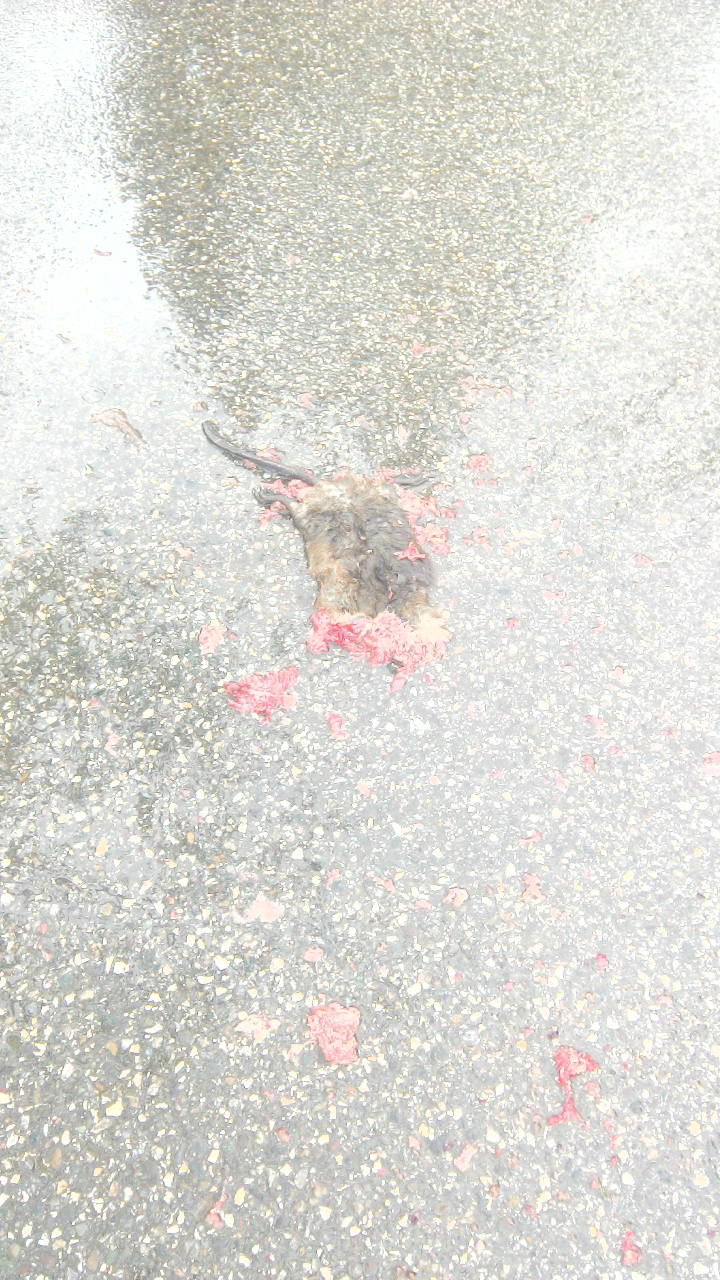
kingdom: Animalia
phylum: Chordata
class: Mammalia
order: Rodentia
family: Cricetidae
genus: Ondatra
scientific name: Ondatra zibethicus
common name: Muskrat
